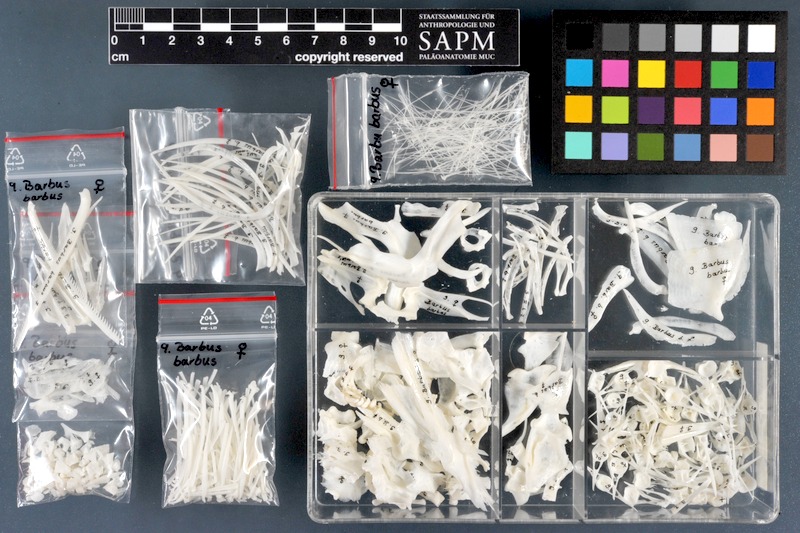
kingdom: Animalia
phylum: Chordata
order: Cypriniformes
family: Cyprinidae
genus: Barbus
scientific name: Barbus barbus
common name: Barbel
